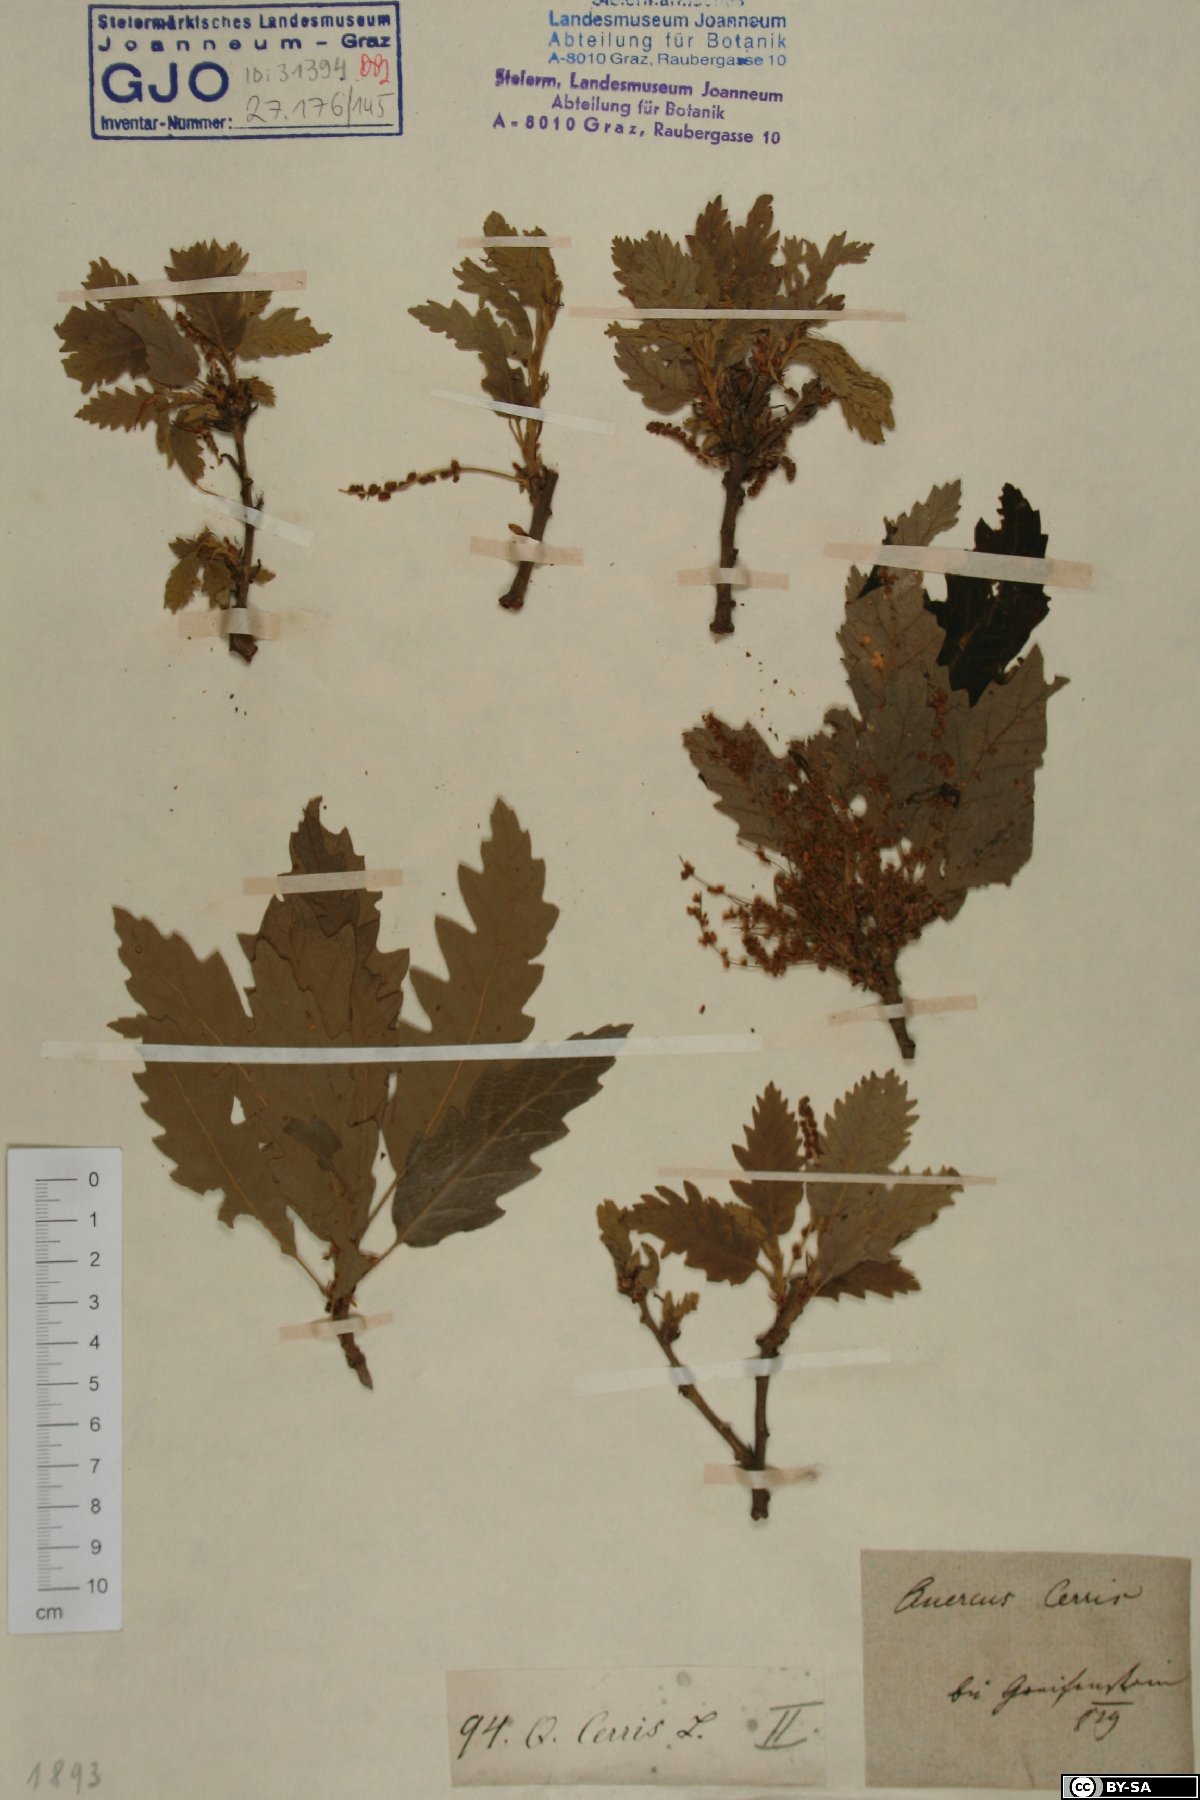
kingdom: Plantae
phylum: Tracheophyta
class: Magnoliopsida
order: Fagales
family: Fagaceae
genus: Quercus
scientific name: Quercus cerris
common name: Turkey oak
